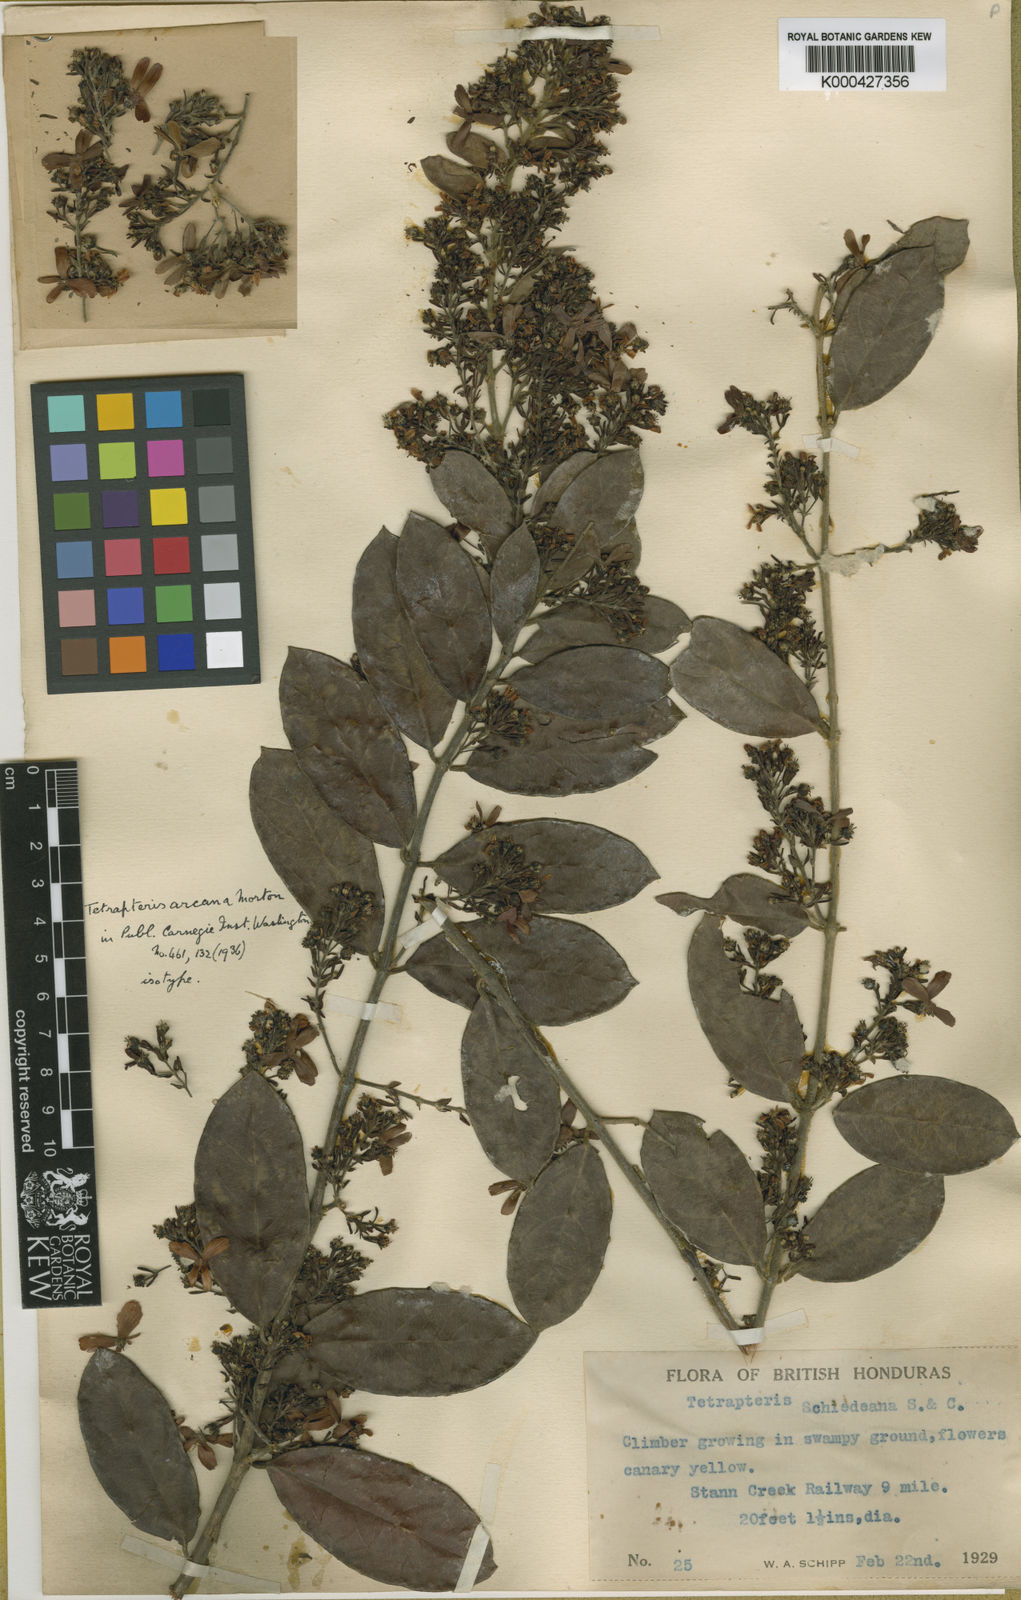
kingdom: Plantae
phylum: Tracheophyta
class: Magnoliopsida
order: Malpighiales
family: Malpighiaceae
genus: Glicophyllum
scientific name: Glicophyllum arcanum
